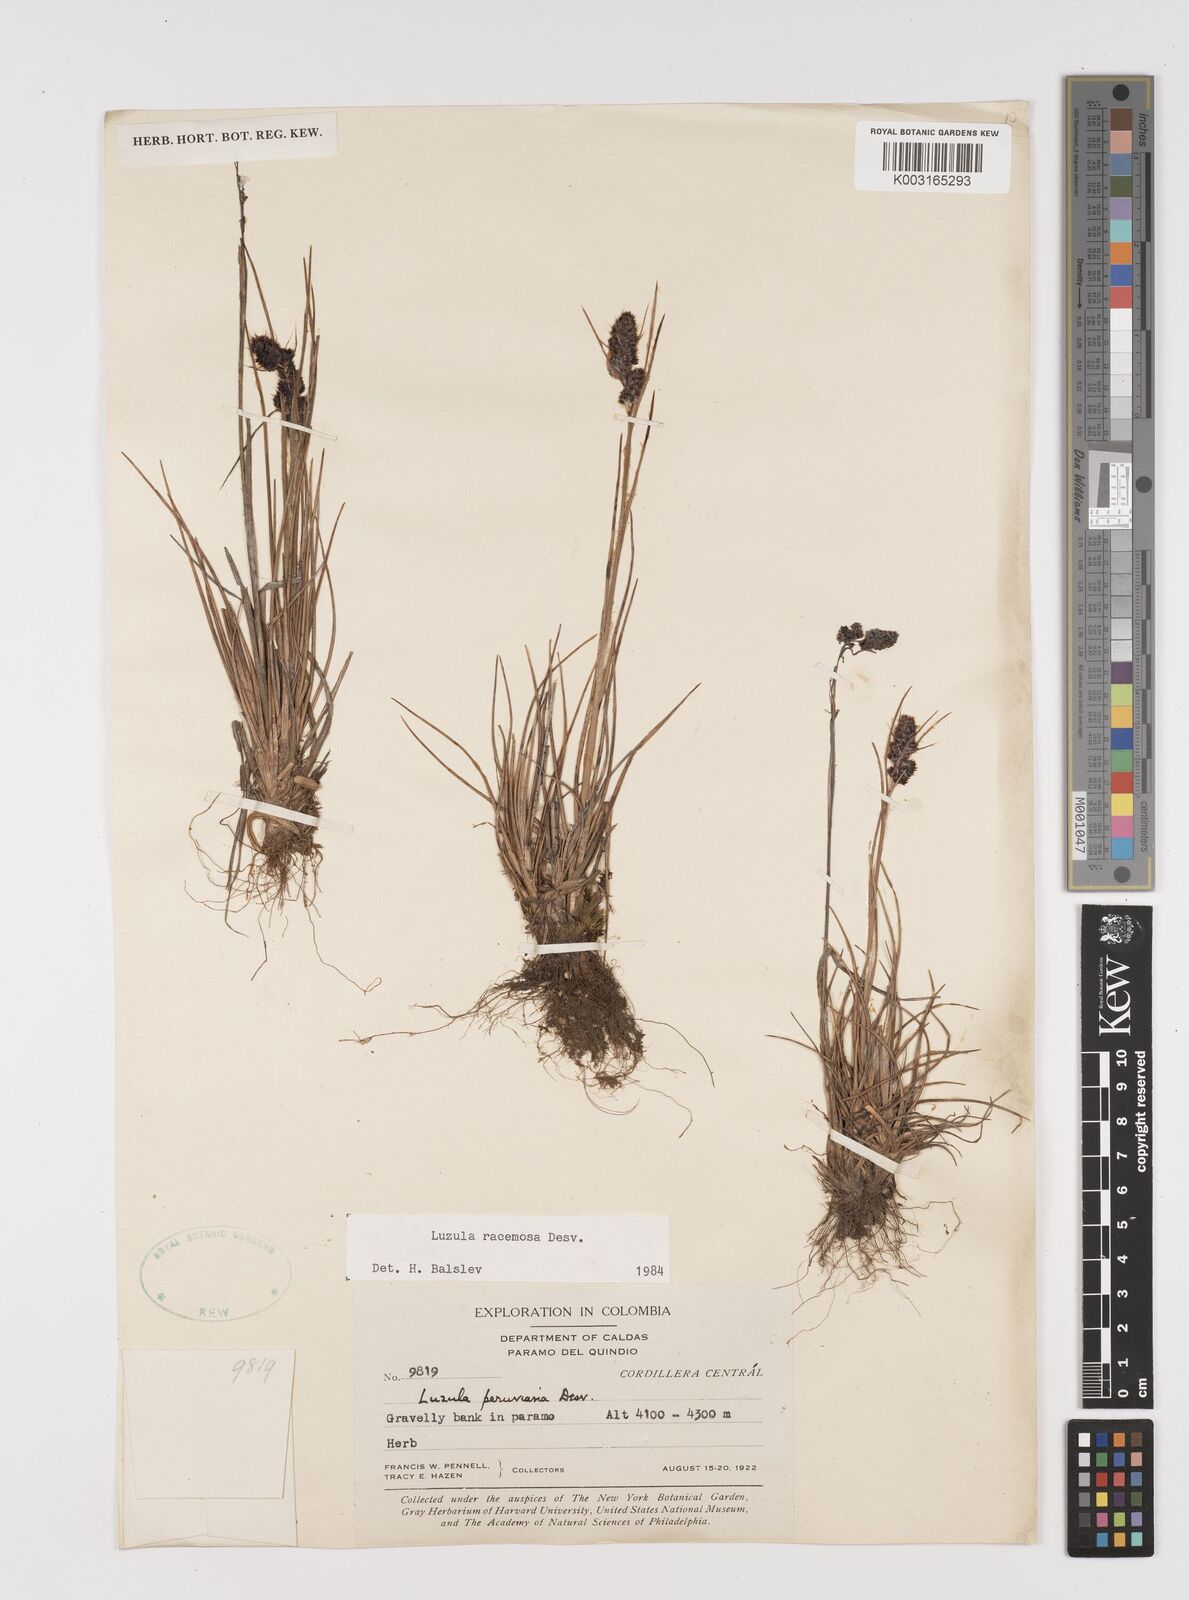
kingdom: Plantae
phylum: Tracheophyta
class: Liliopsida
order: Poales
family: Juncaceae
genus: Luzula
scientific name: Luzula racemosa
